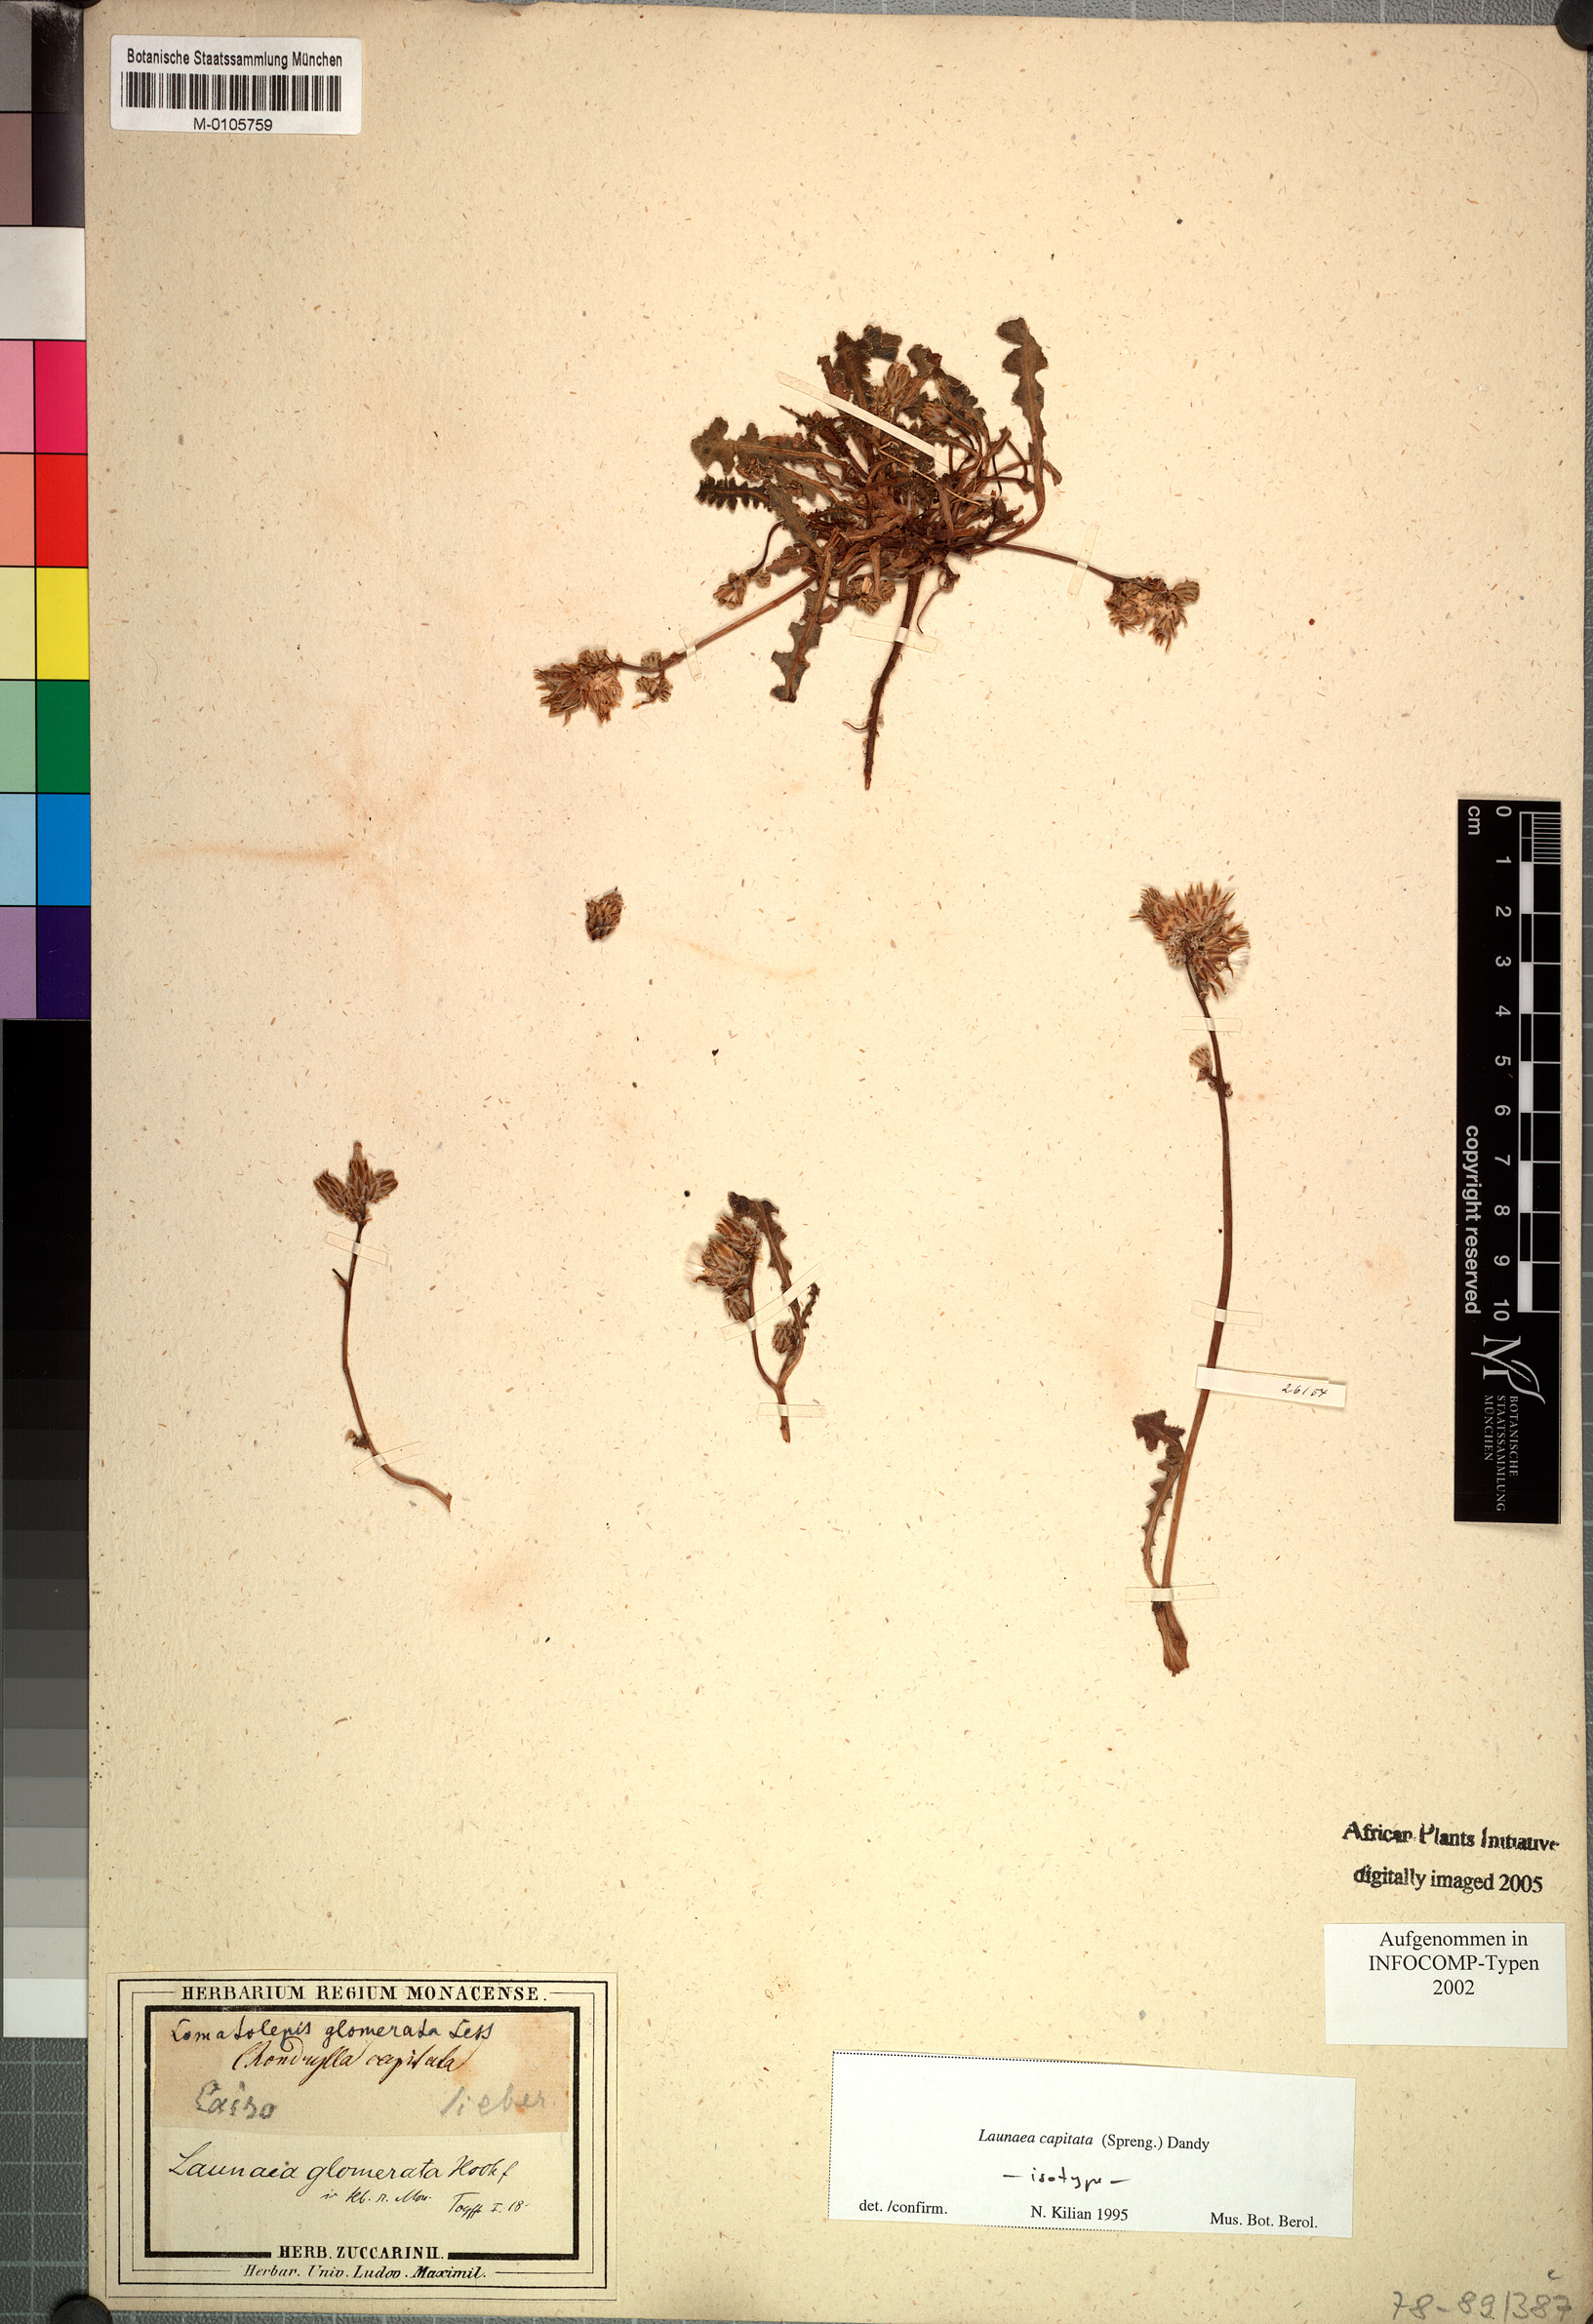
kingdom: Plantae
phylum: Tracheophyta
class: Magnoliopsida
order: Asterales
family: Asteraceae
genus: Launaea
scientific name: Launaea capitata
